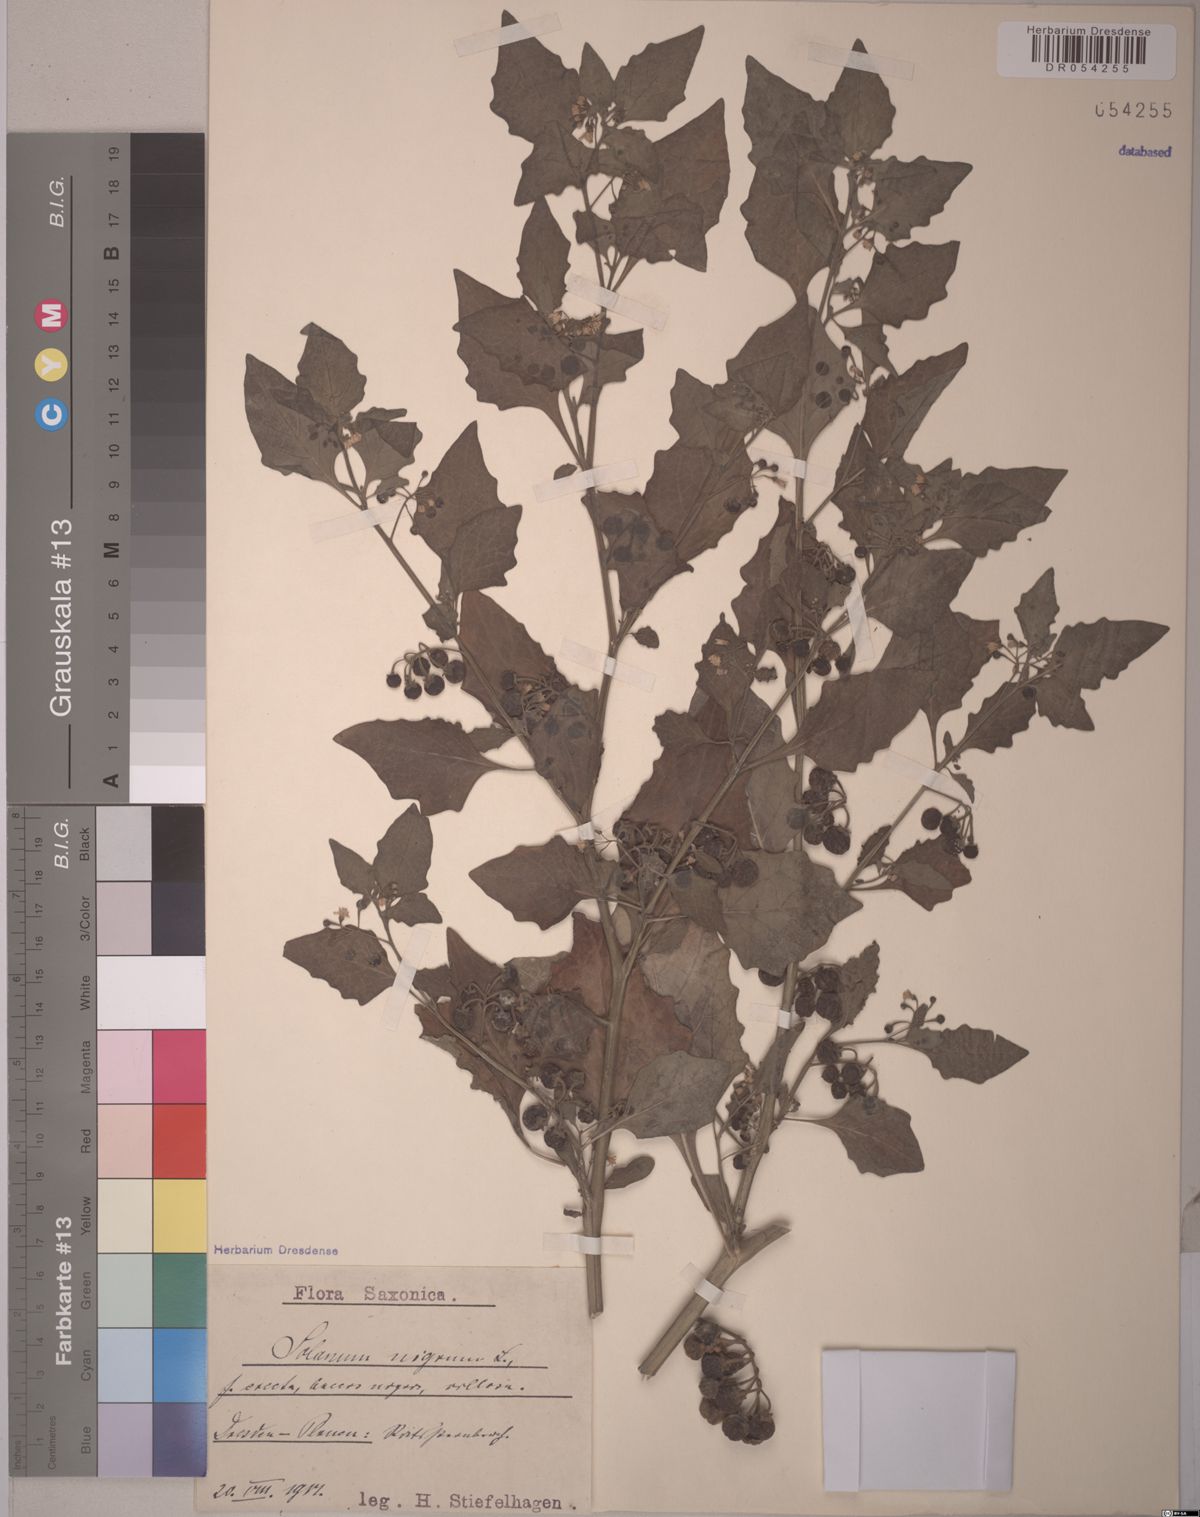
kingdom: Plantae
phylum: Tracheophyta
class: Magnoliopsida
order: Solanales
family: Solanaceae
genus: Solanum
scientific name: Solanum nigrum
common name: Black nightshade
